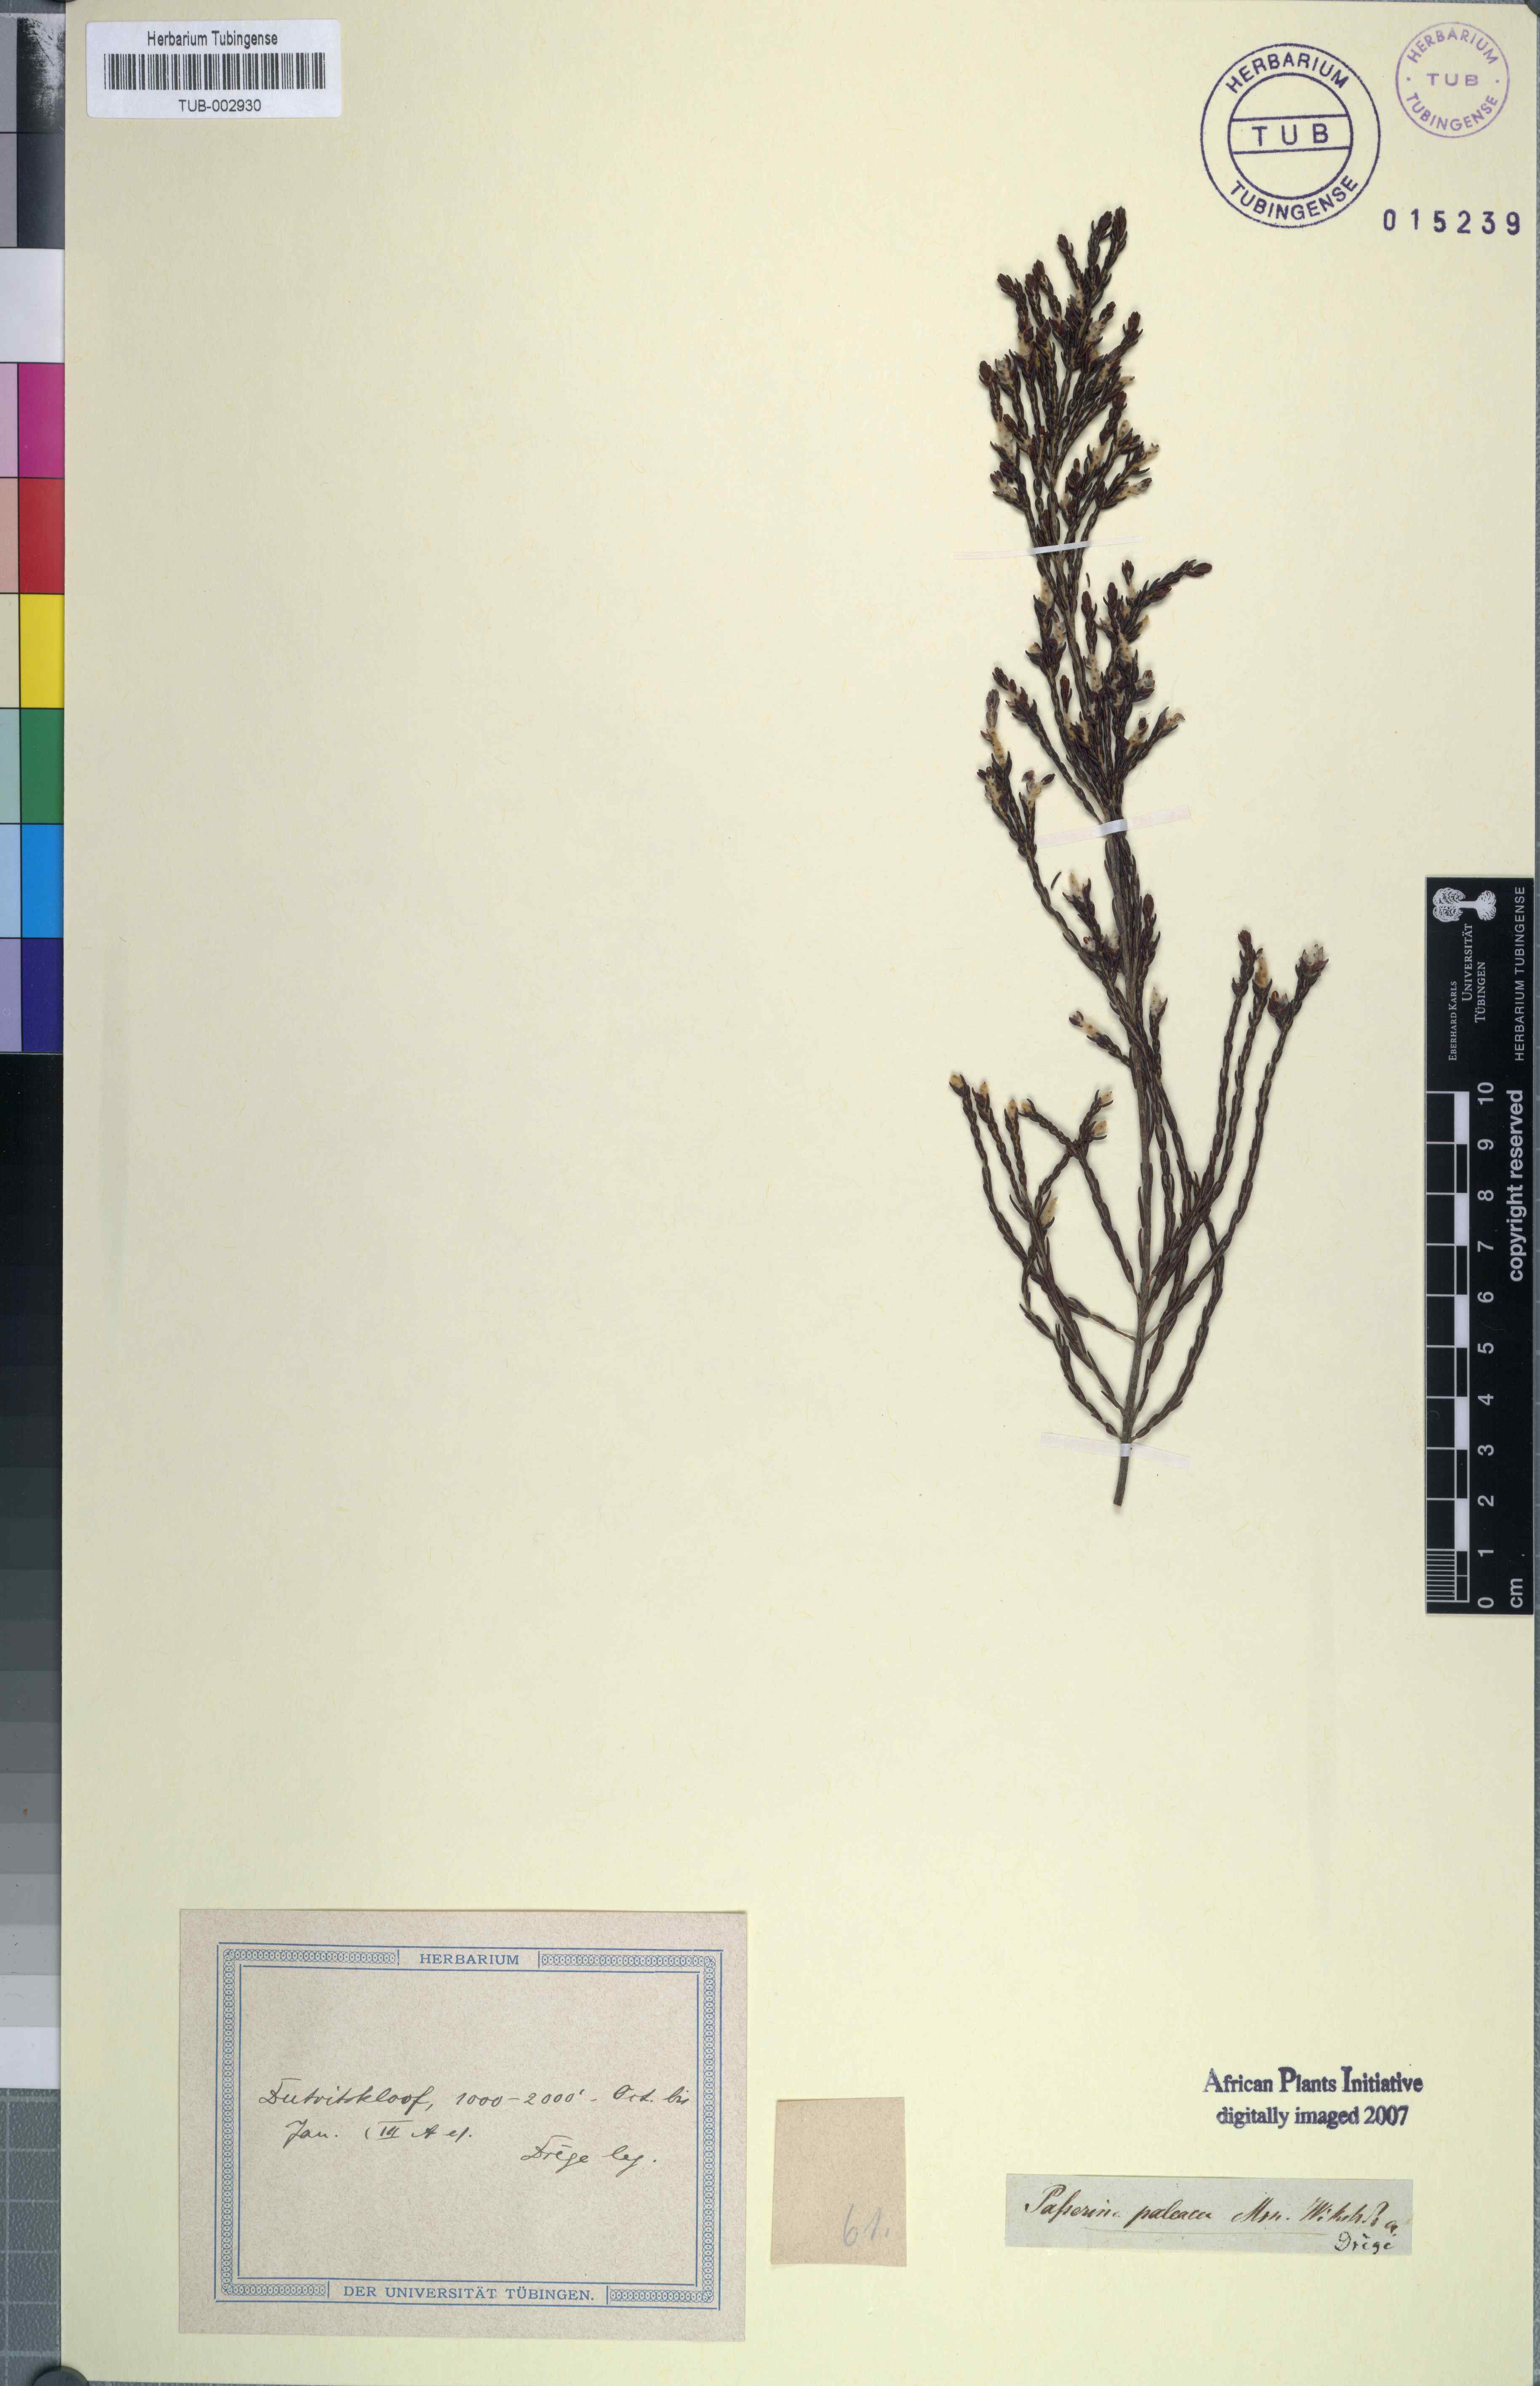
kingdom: Plantae
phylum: Tracheophyta
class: Magnoliopsida
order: Malvales
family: Thymelaeaceae
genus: Passerina
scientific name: Passerina paleacea
